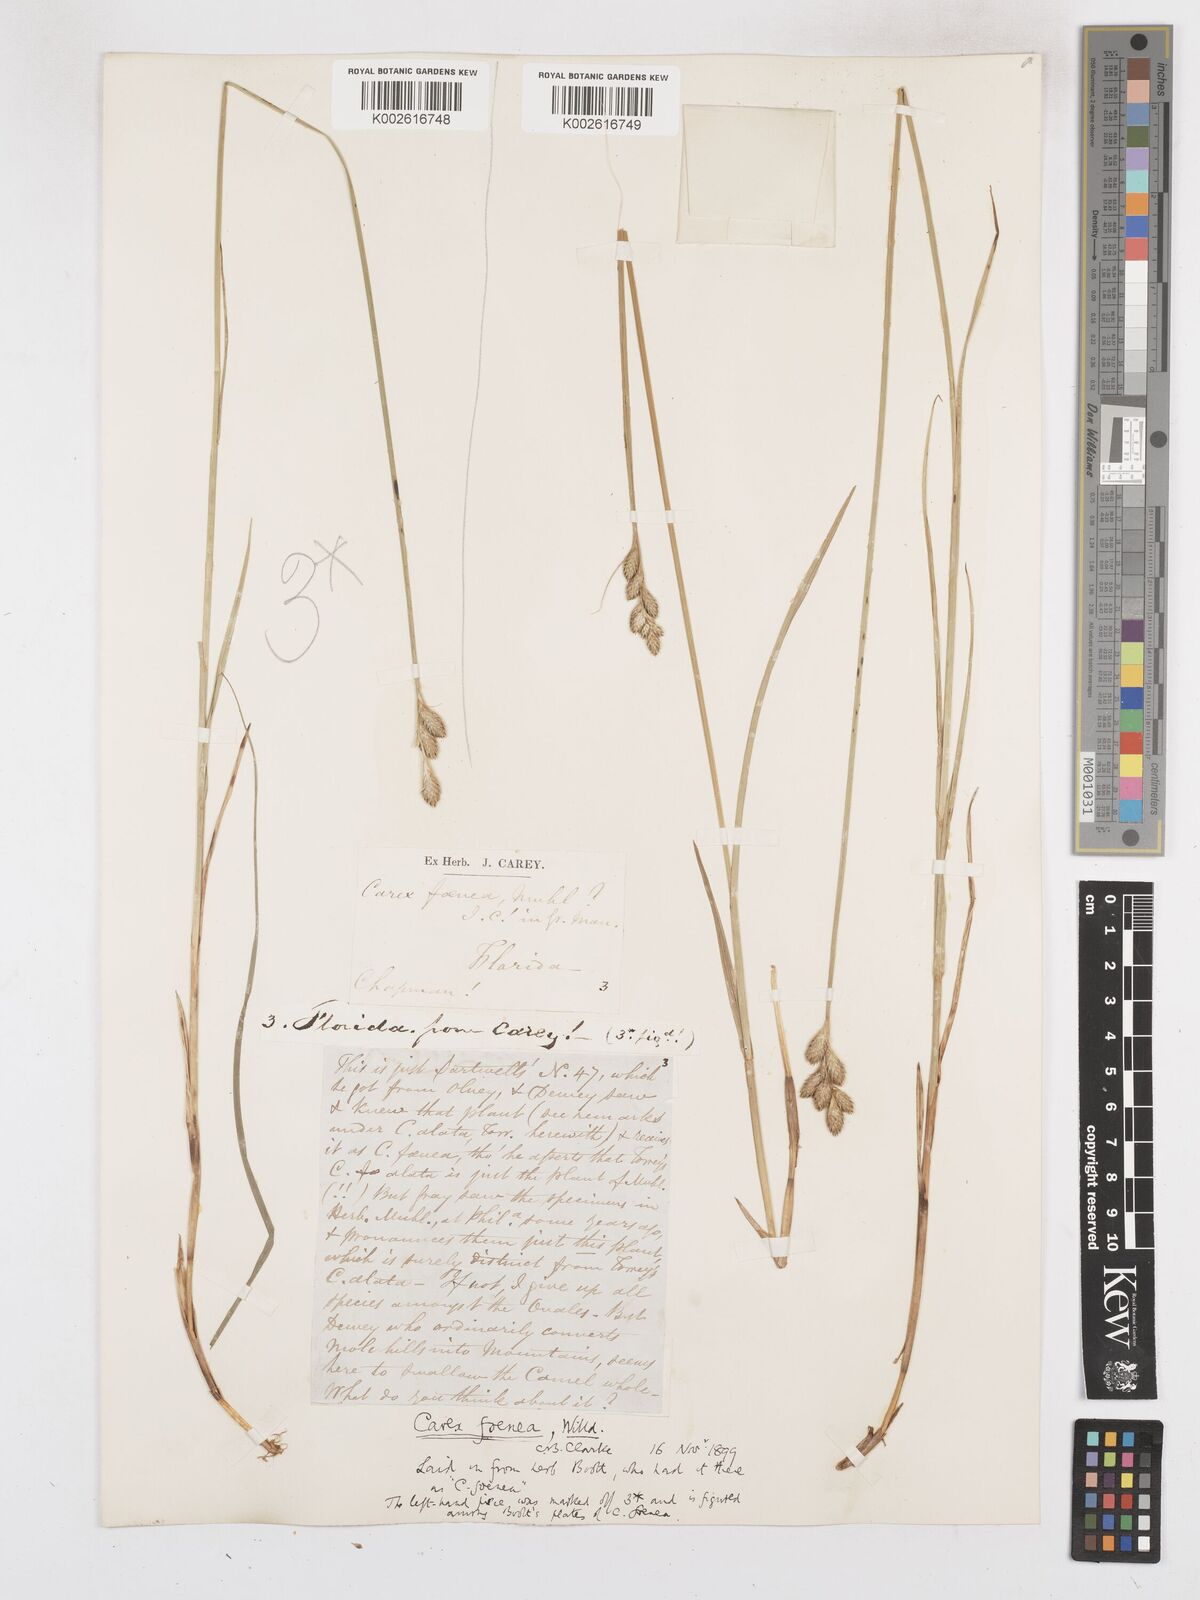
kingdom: Plantae
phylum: Tracheophyta
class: Liliopsida
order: Poales
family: Cyperaceae
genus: Carex
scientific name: Carex argyrantha
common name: Silvery-flowered sedge
